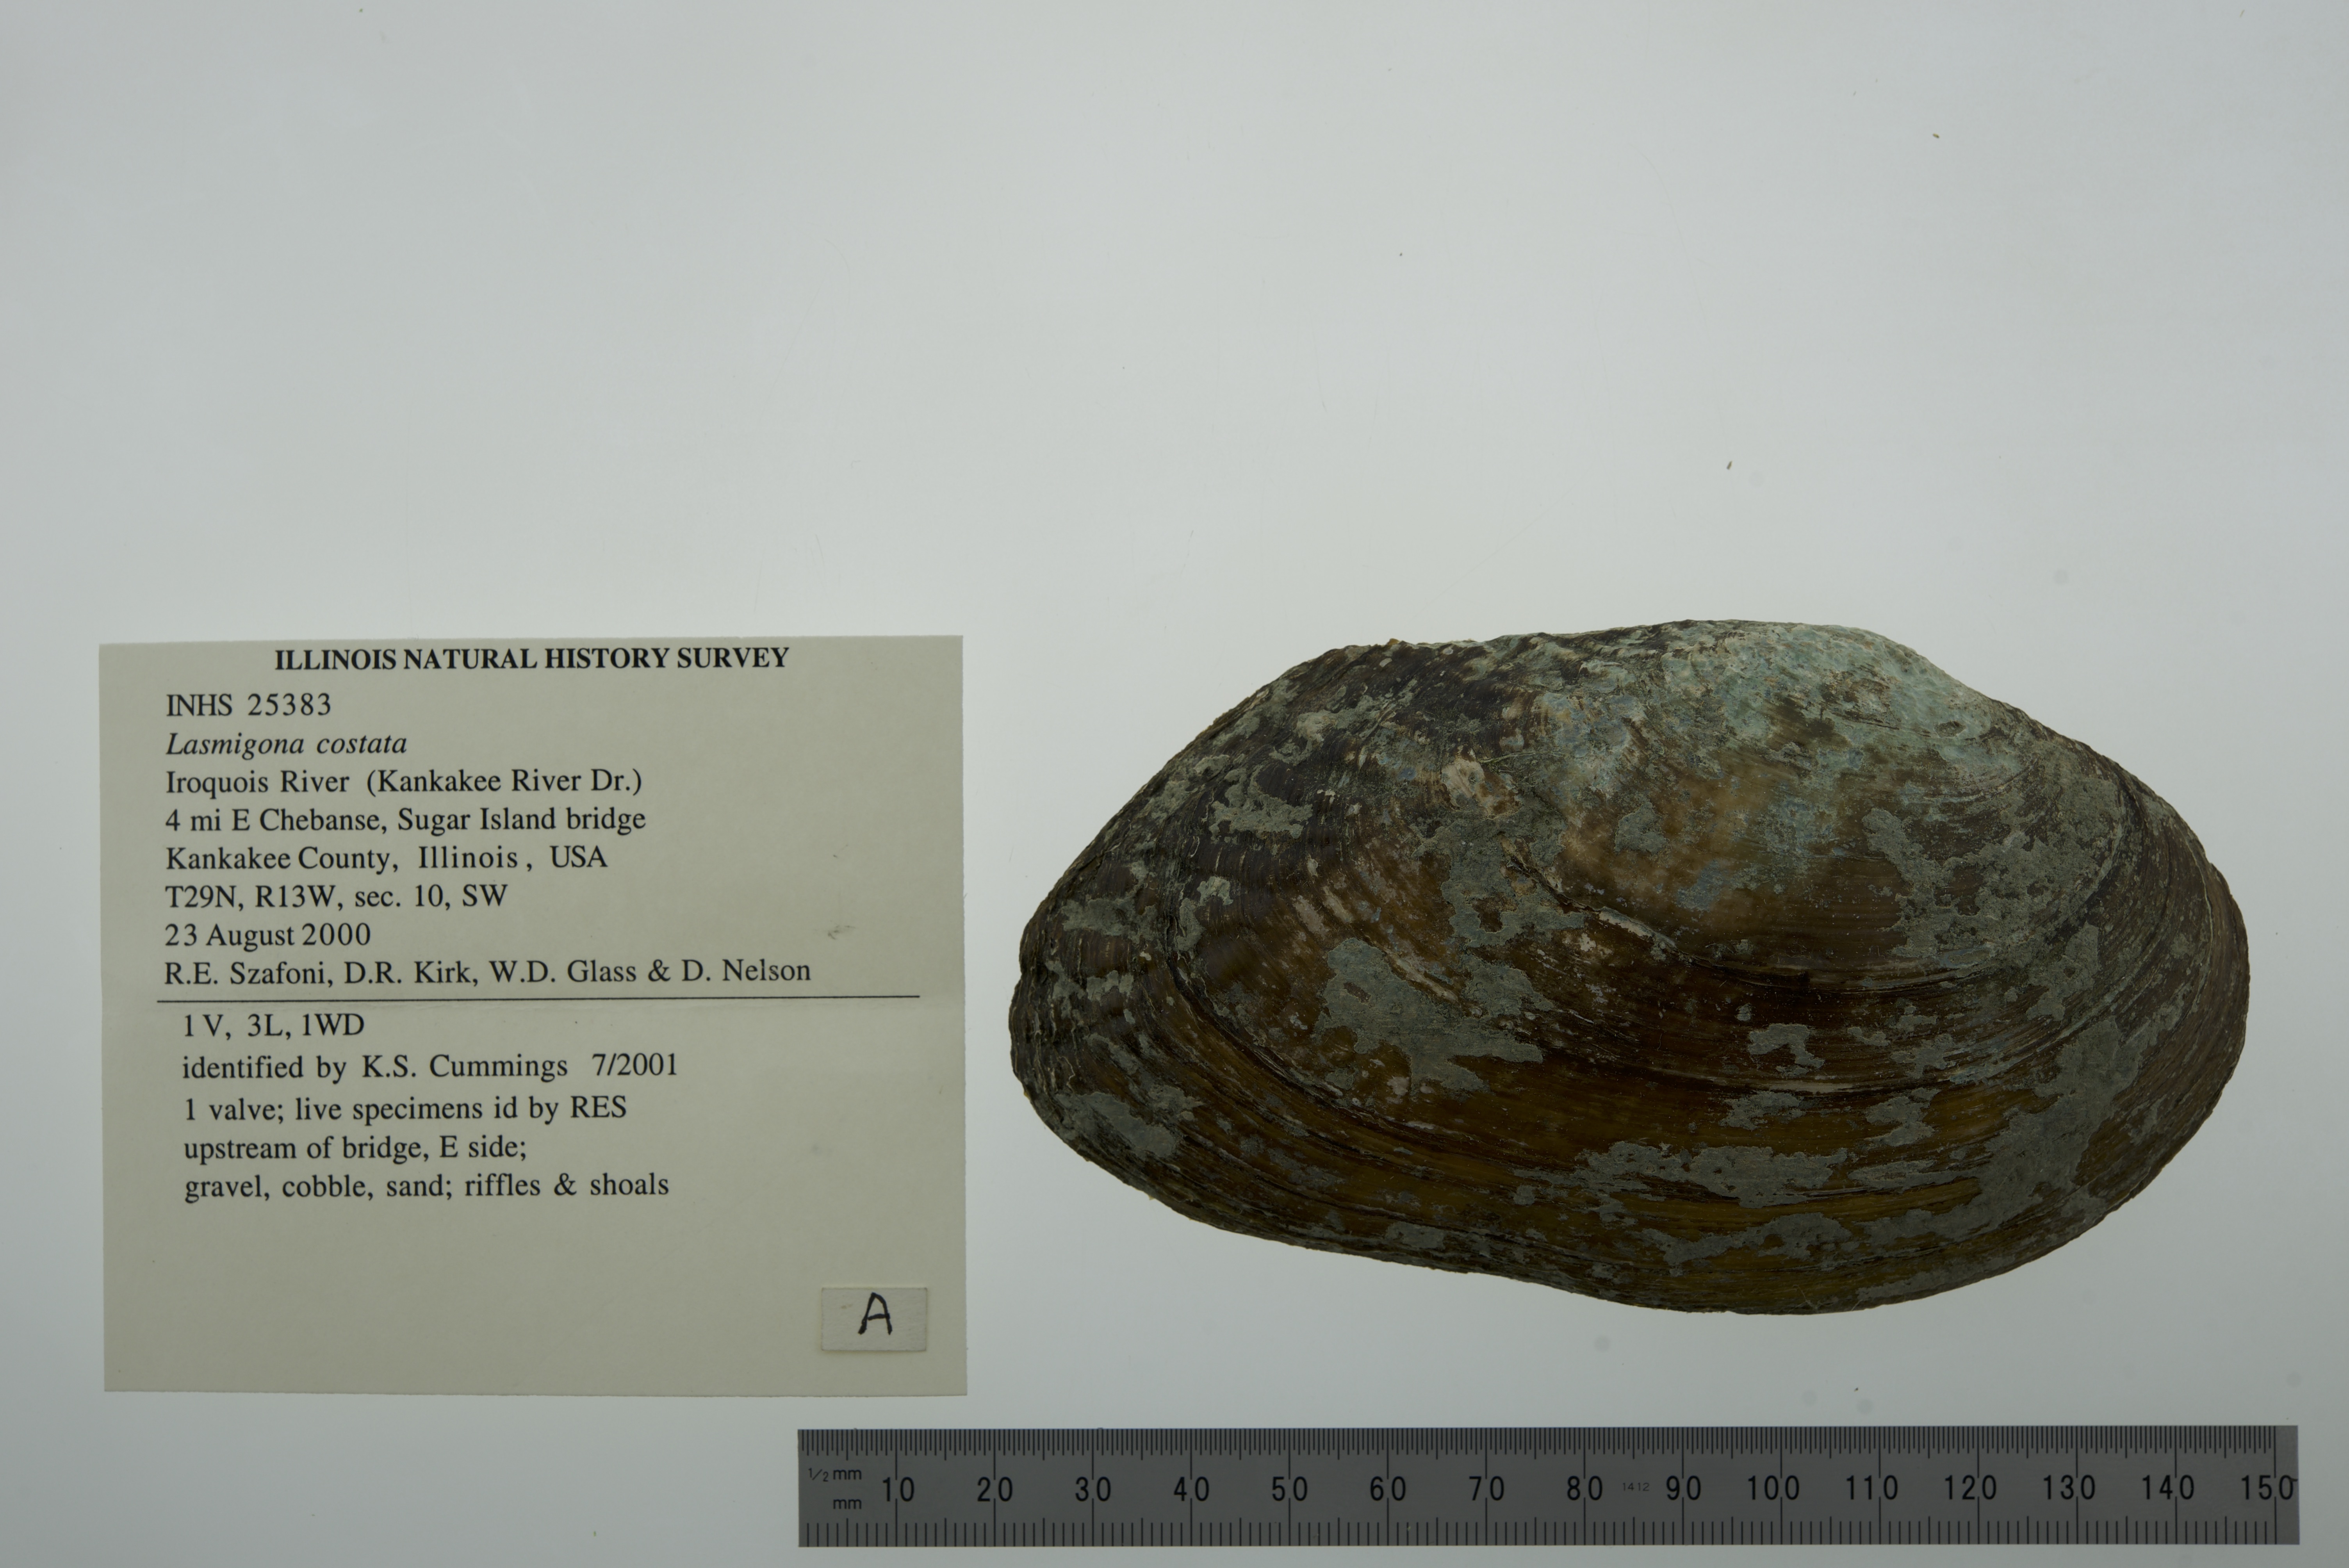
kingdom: Animalia
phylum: Mollusca
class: Bivalvia
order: Unionida
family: Unionidae
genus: Lasmigona
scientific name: Lasmigona costata
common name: Flutedshell
